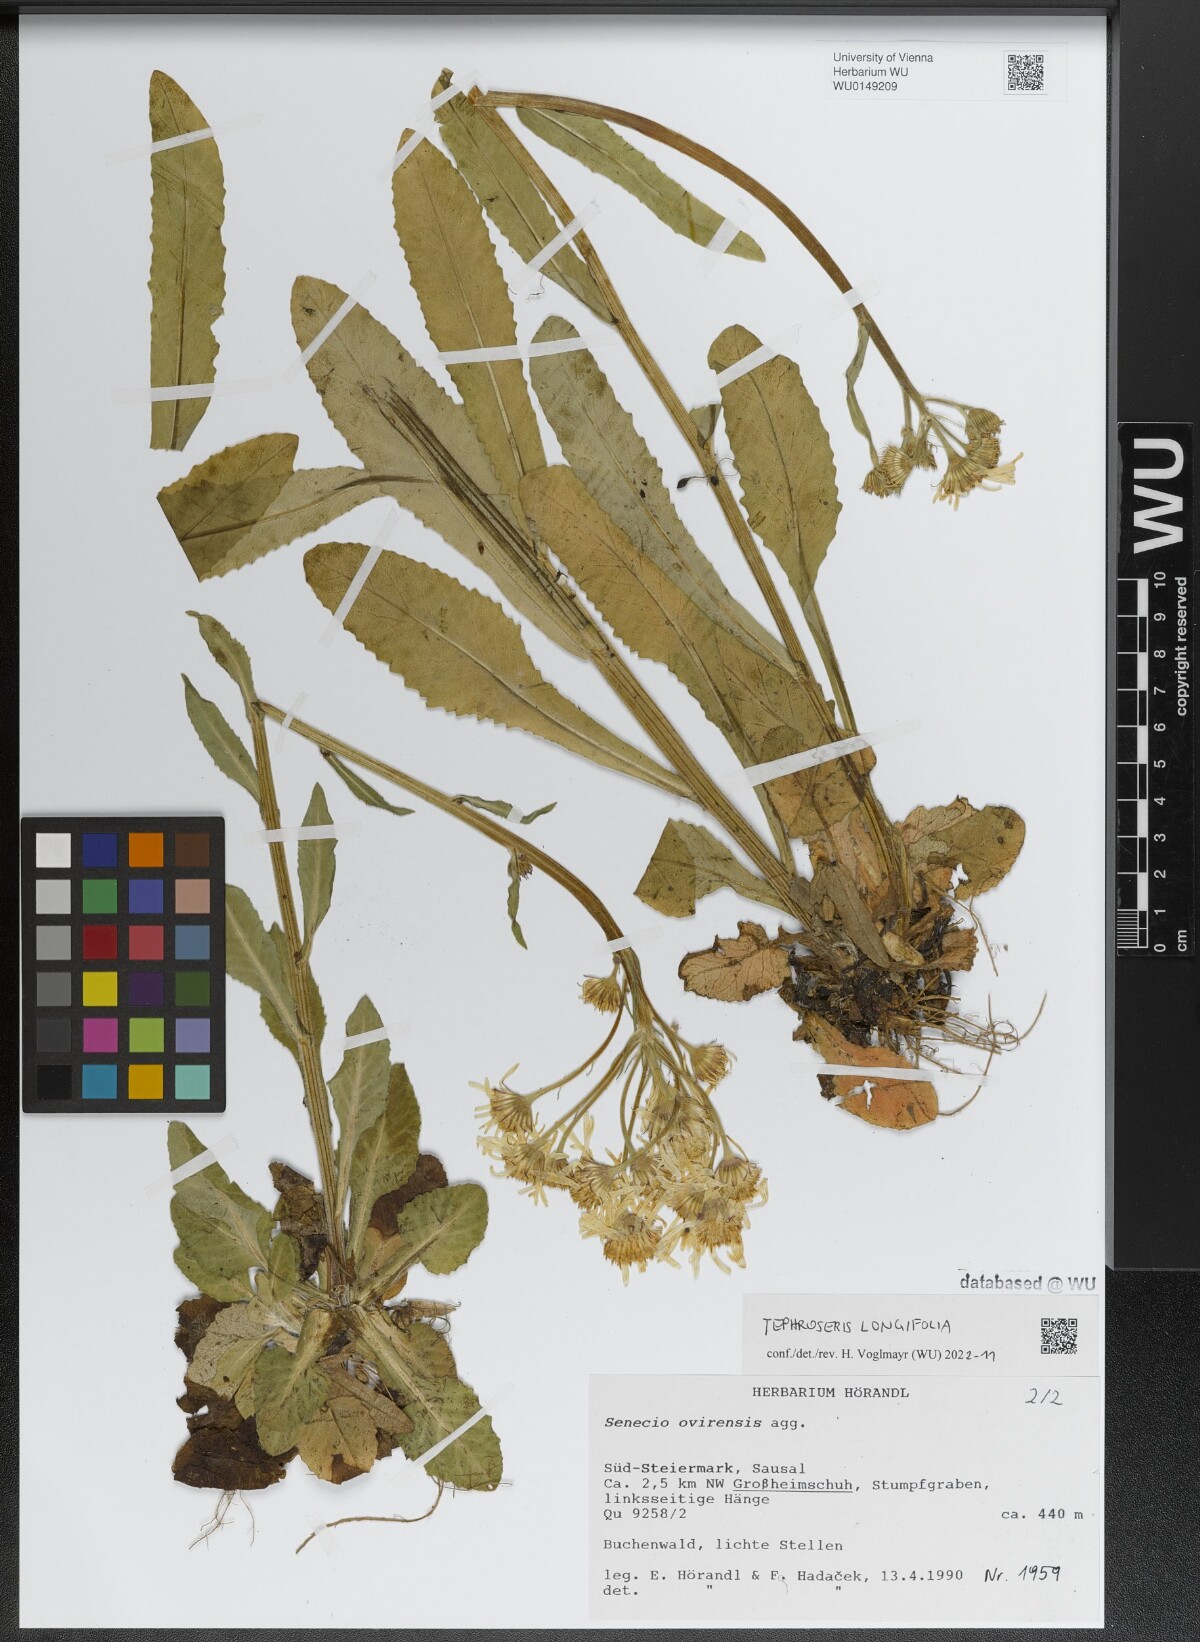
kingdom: Plantae
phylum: Tracheophyta
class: Magnoliopsida
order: Asterales
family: Asteraceae
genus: Tephroseris
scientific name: Tephroseris longifolia
